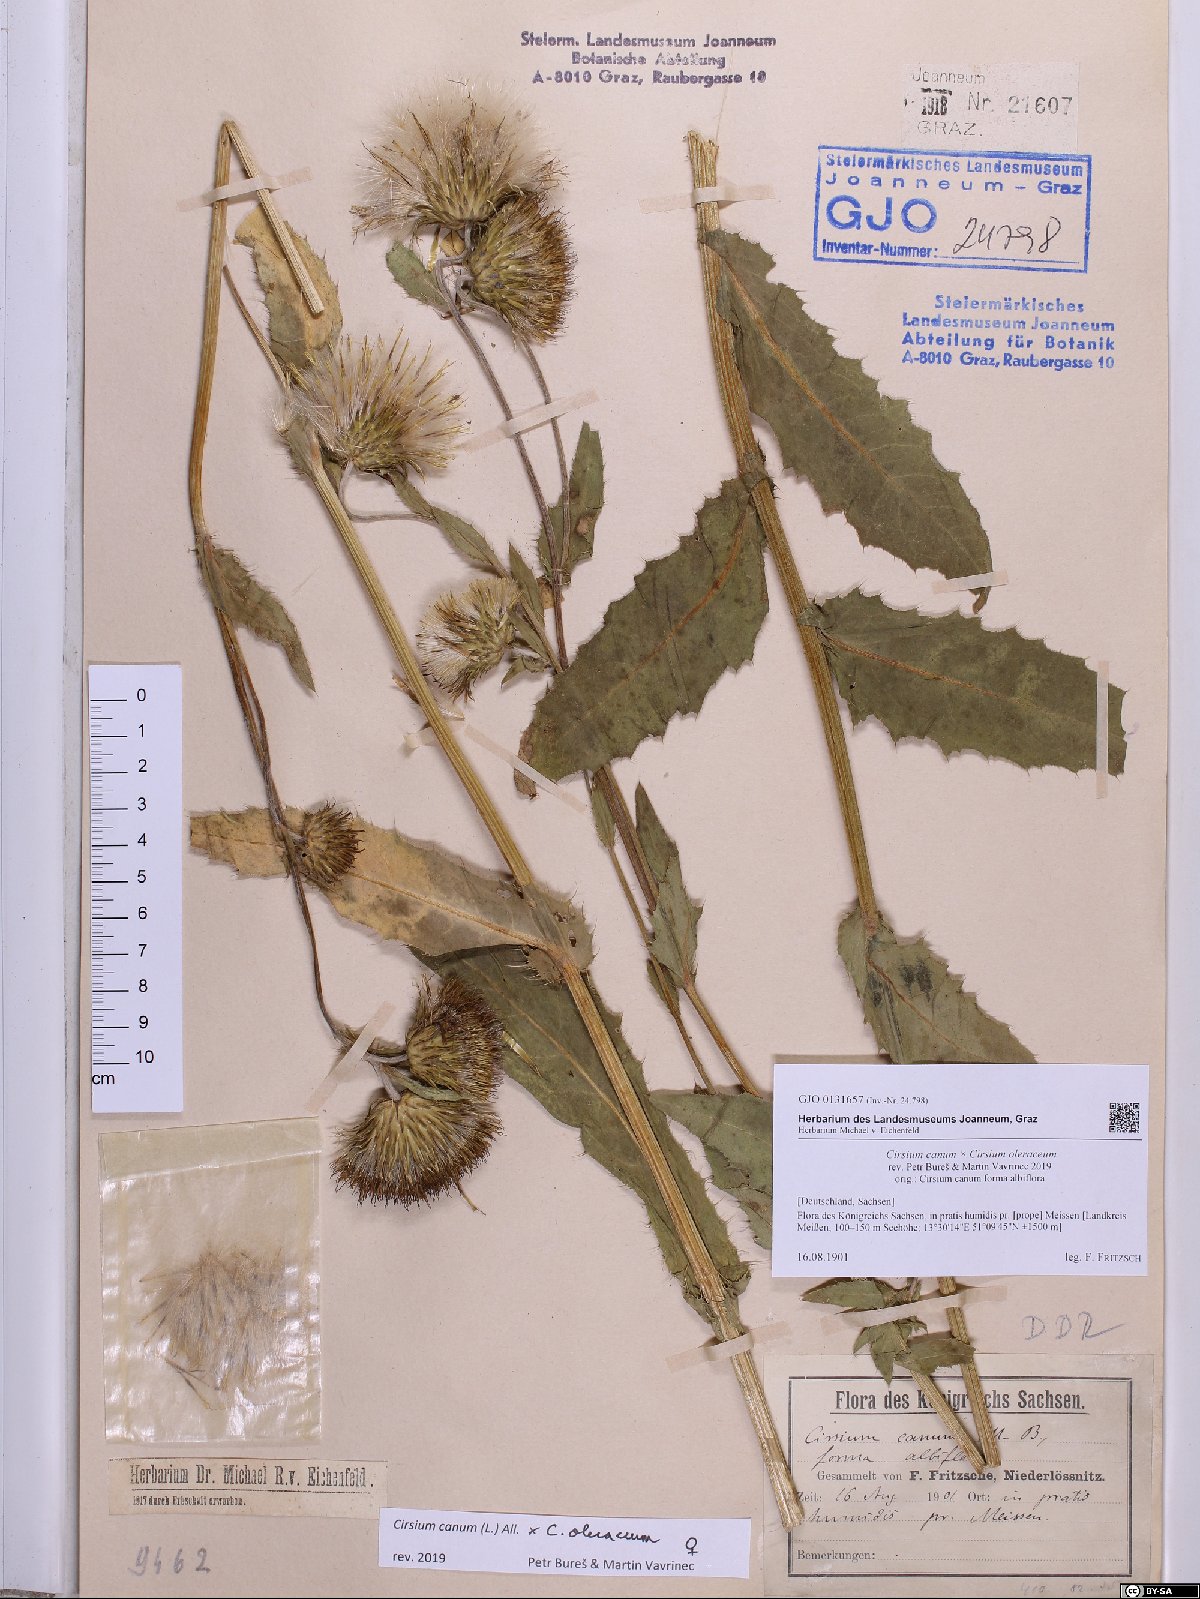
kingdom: Plantae
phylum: Tracheophyta
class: Magnoliopsida
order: Asterales
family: Asteraceae
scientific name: Asteraceae
